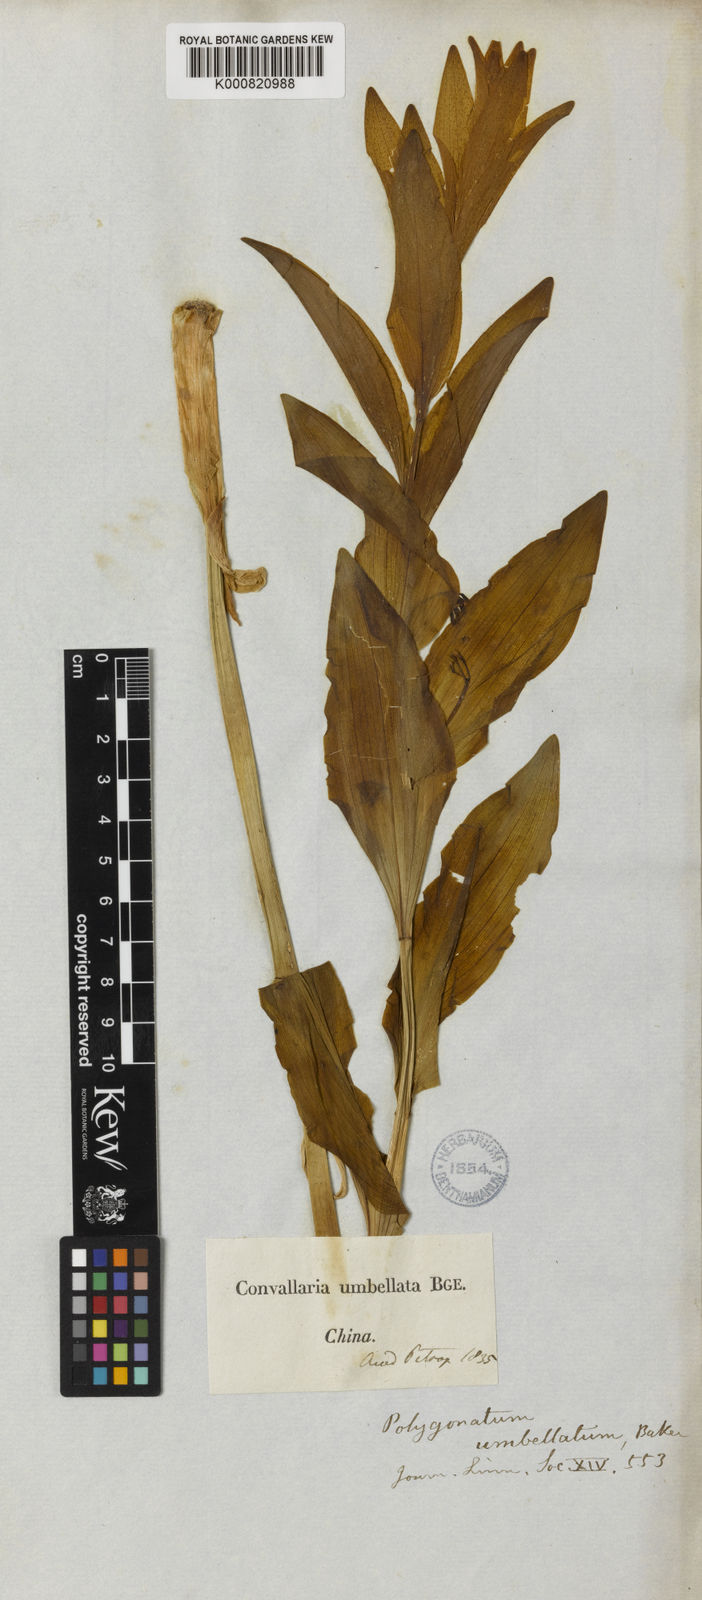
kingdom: Plantae
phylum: Tracheophyta
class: Liliopsida
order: Asparagales
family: Asparagaceae
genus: Polygonatum
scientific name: Polygonatum macropodum
